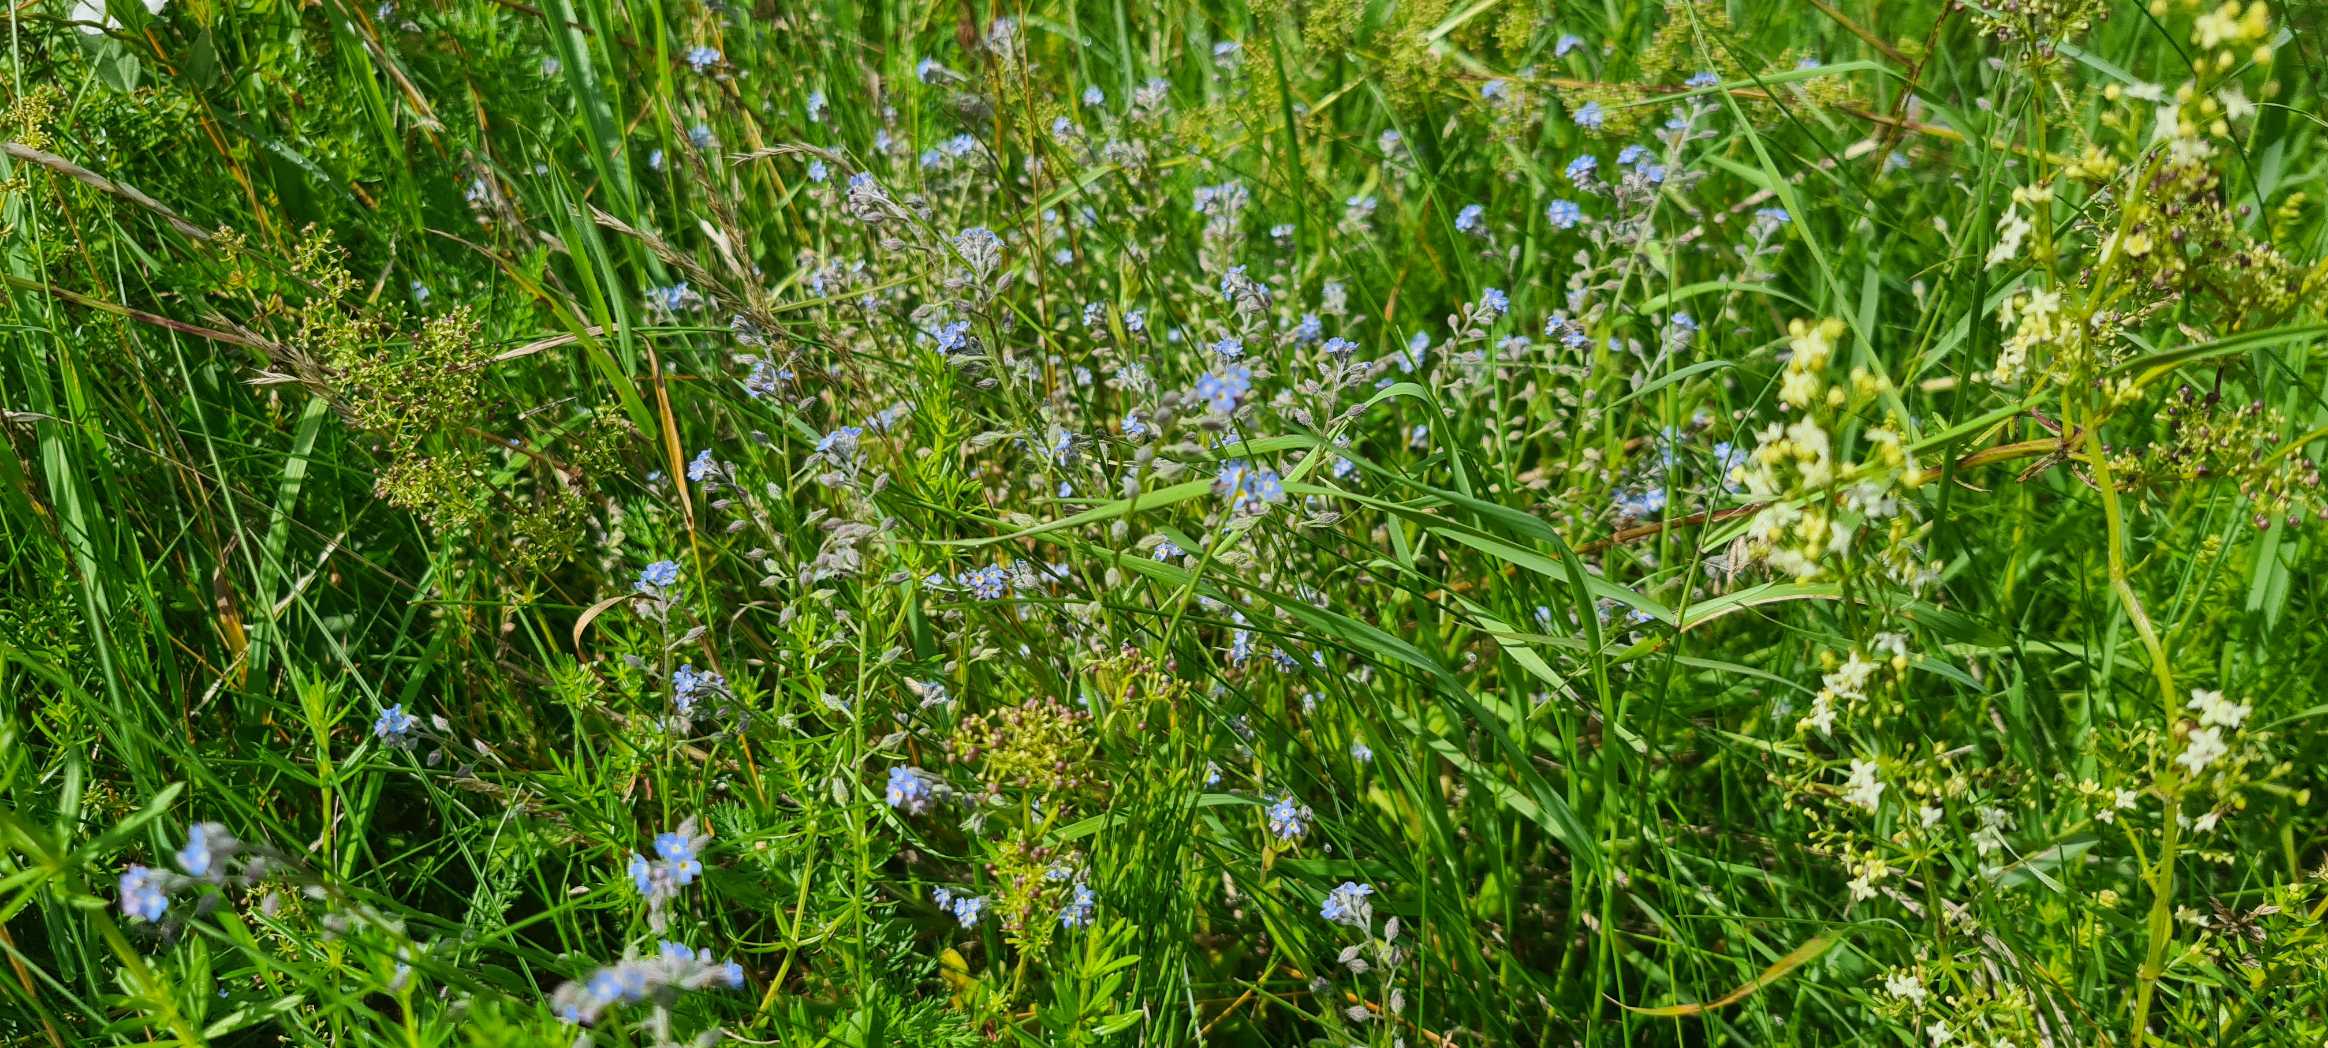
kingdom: Plantae
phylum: Tracheophyta
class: Magnoliopsida
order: Boraginales
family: Boraginaceae
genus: Myosotis
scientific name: Myosotis arvensis
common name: Mark-forglemmigej
